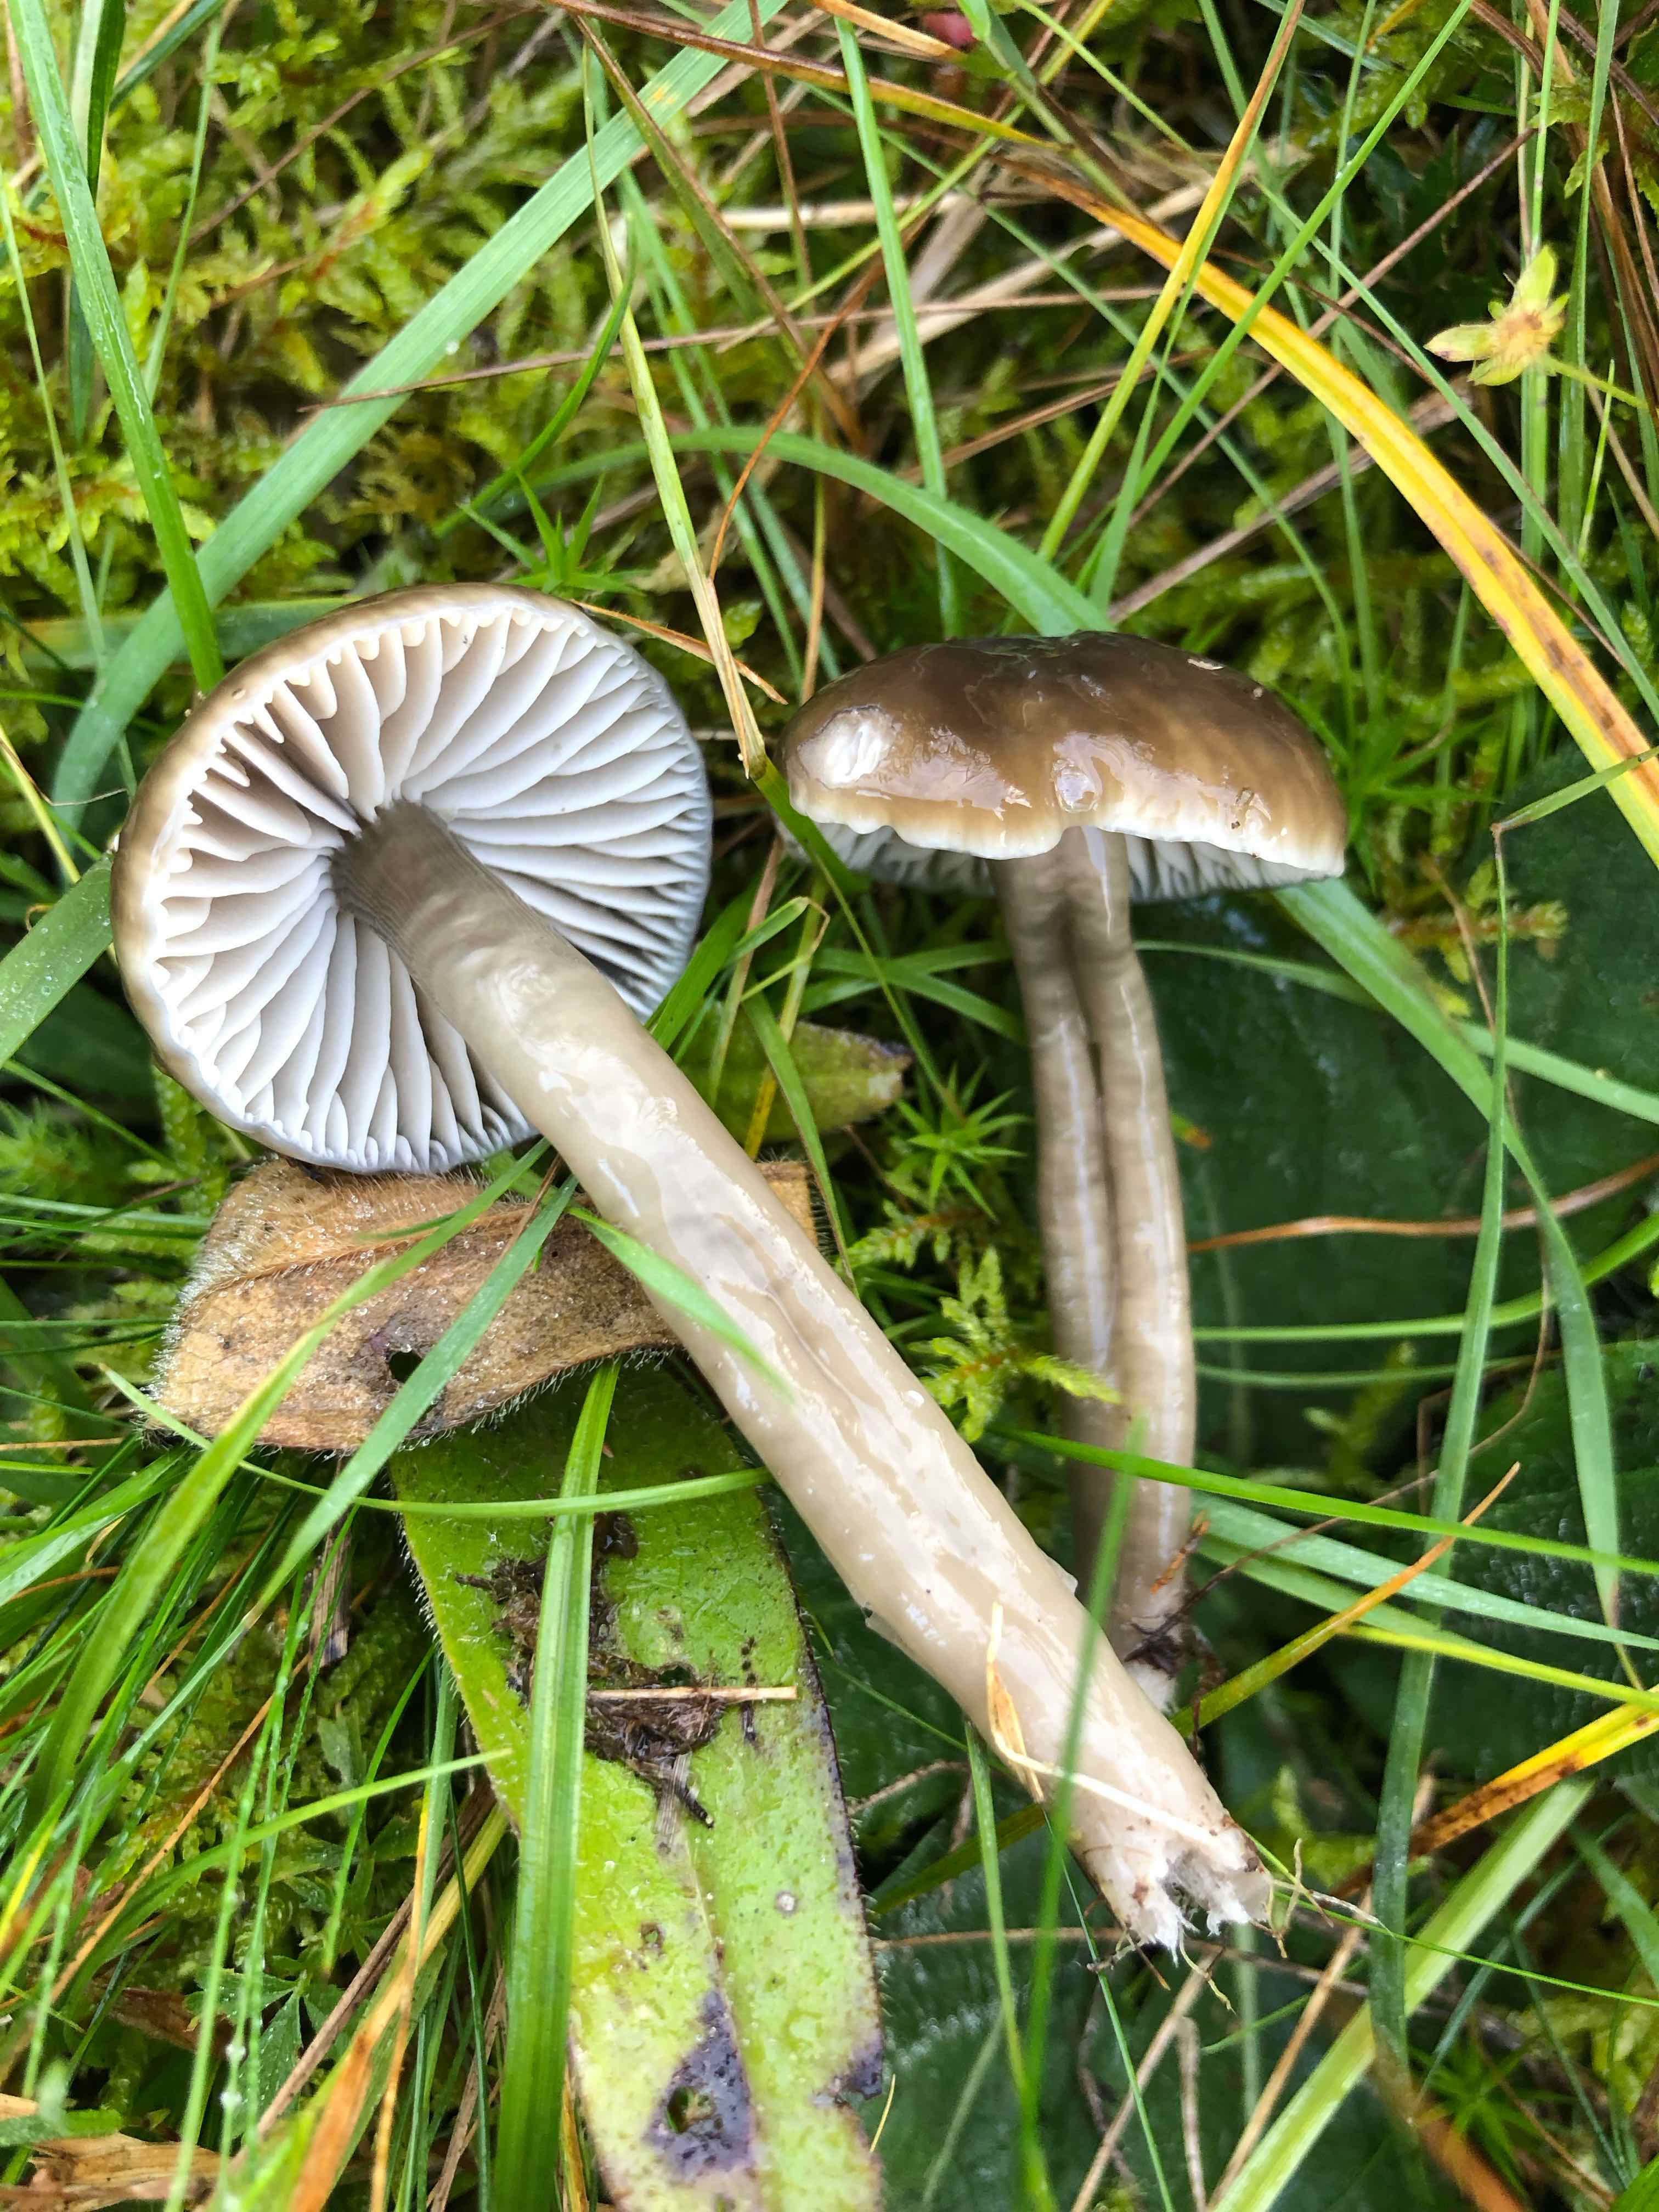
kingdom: Fungi
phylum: Basidiomycota
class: Agaricomycetes
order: Agaricales
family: Hygrophoraceae
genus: Gliophorus
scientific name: Gliophorus irrigatus
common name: slimet vokshat
